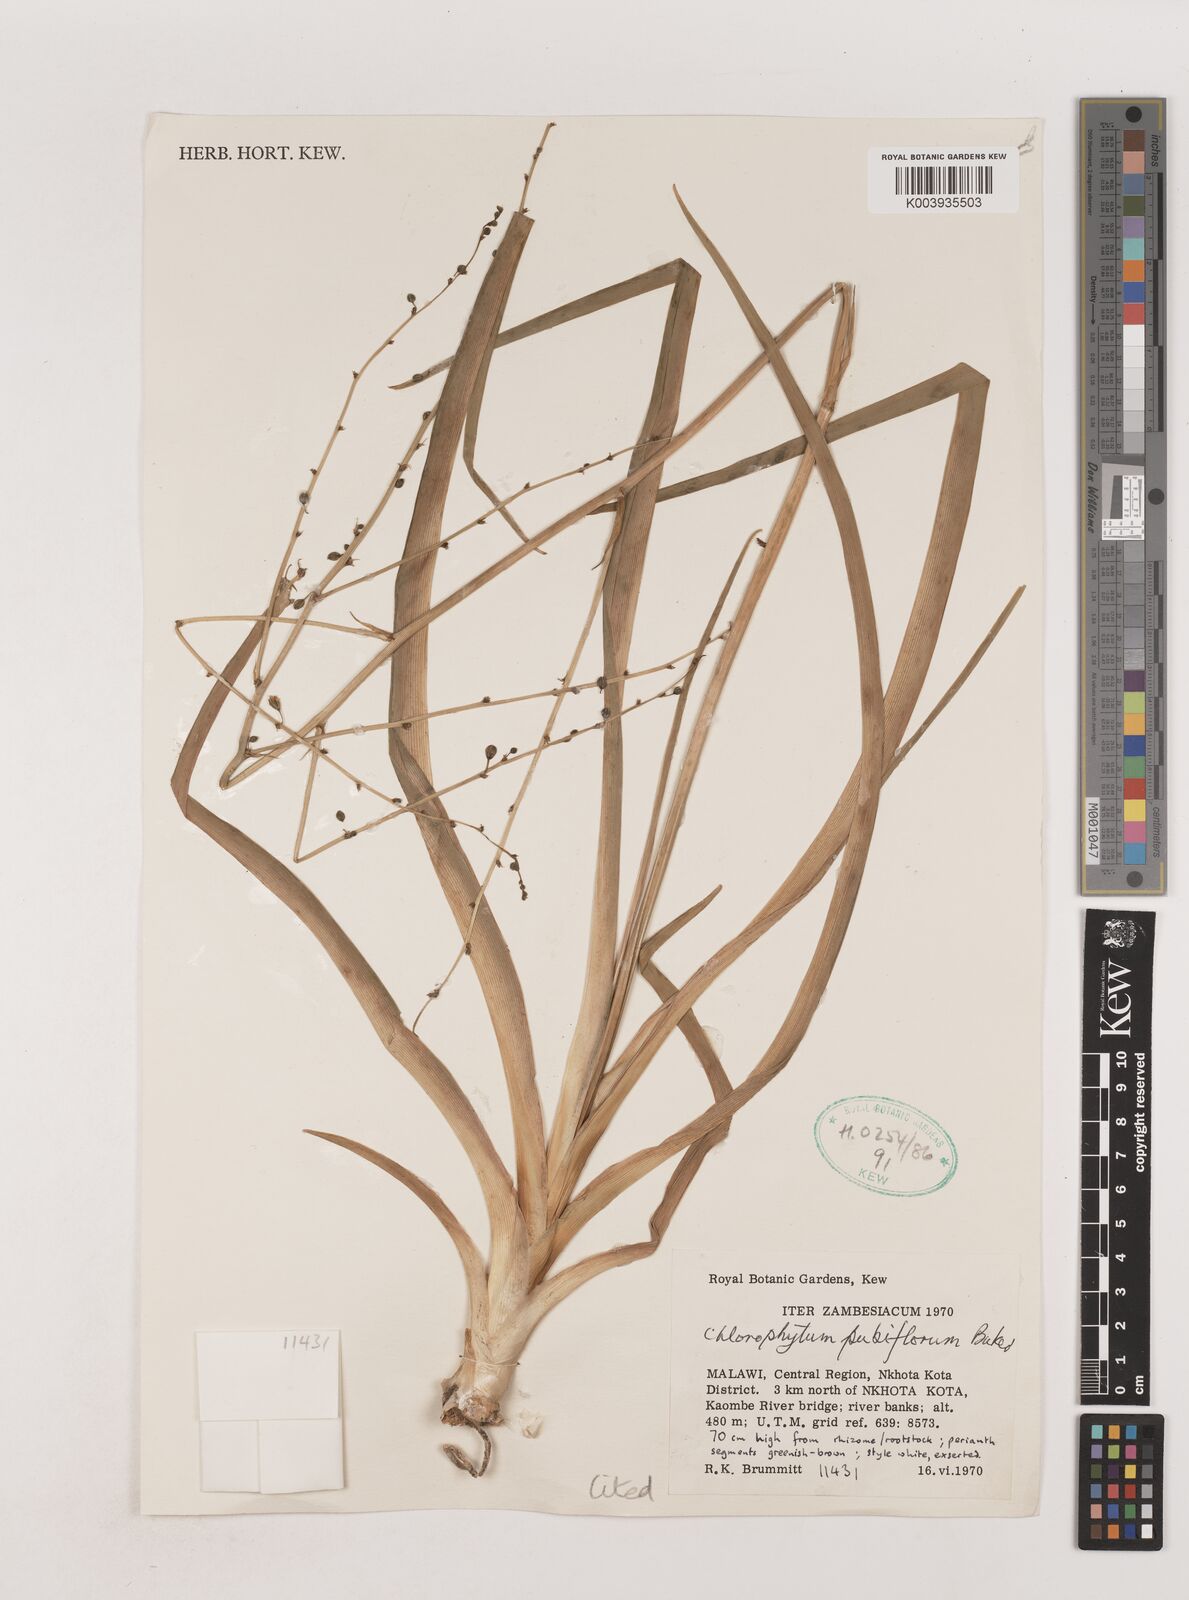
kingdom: Plantae
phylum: Tracheophyta
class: Liliopsida
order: Asparagales
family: Asparagaceae
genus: Chlorophytum
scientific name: Chlorophytum pubiflorum
